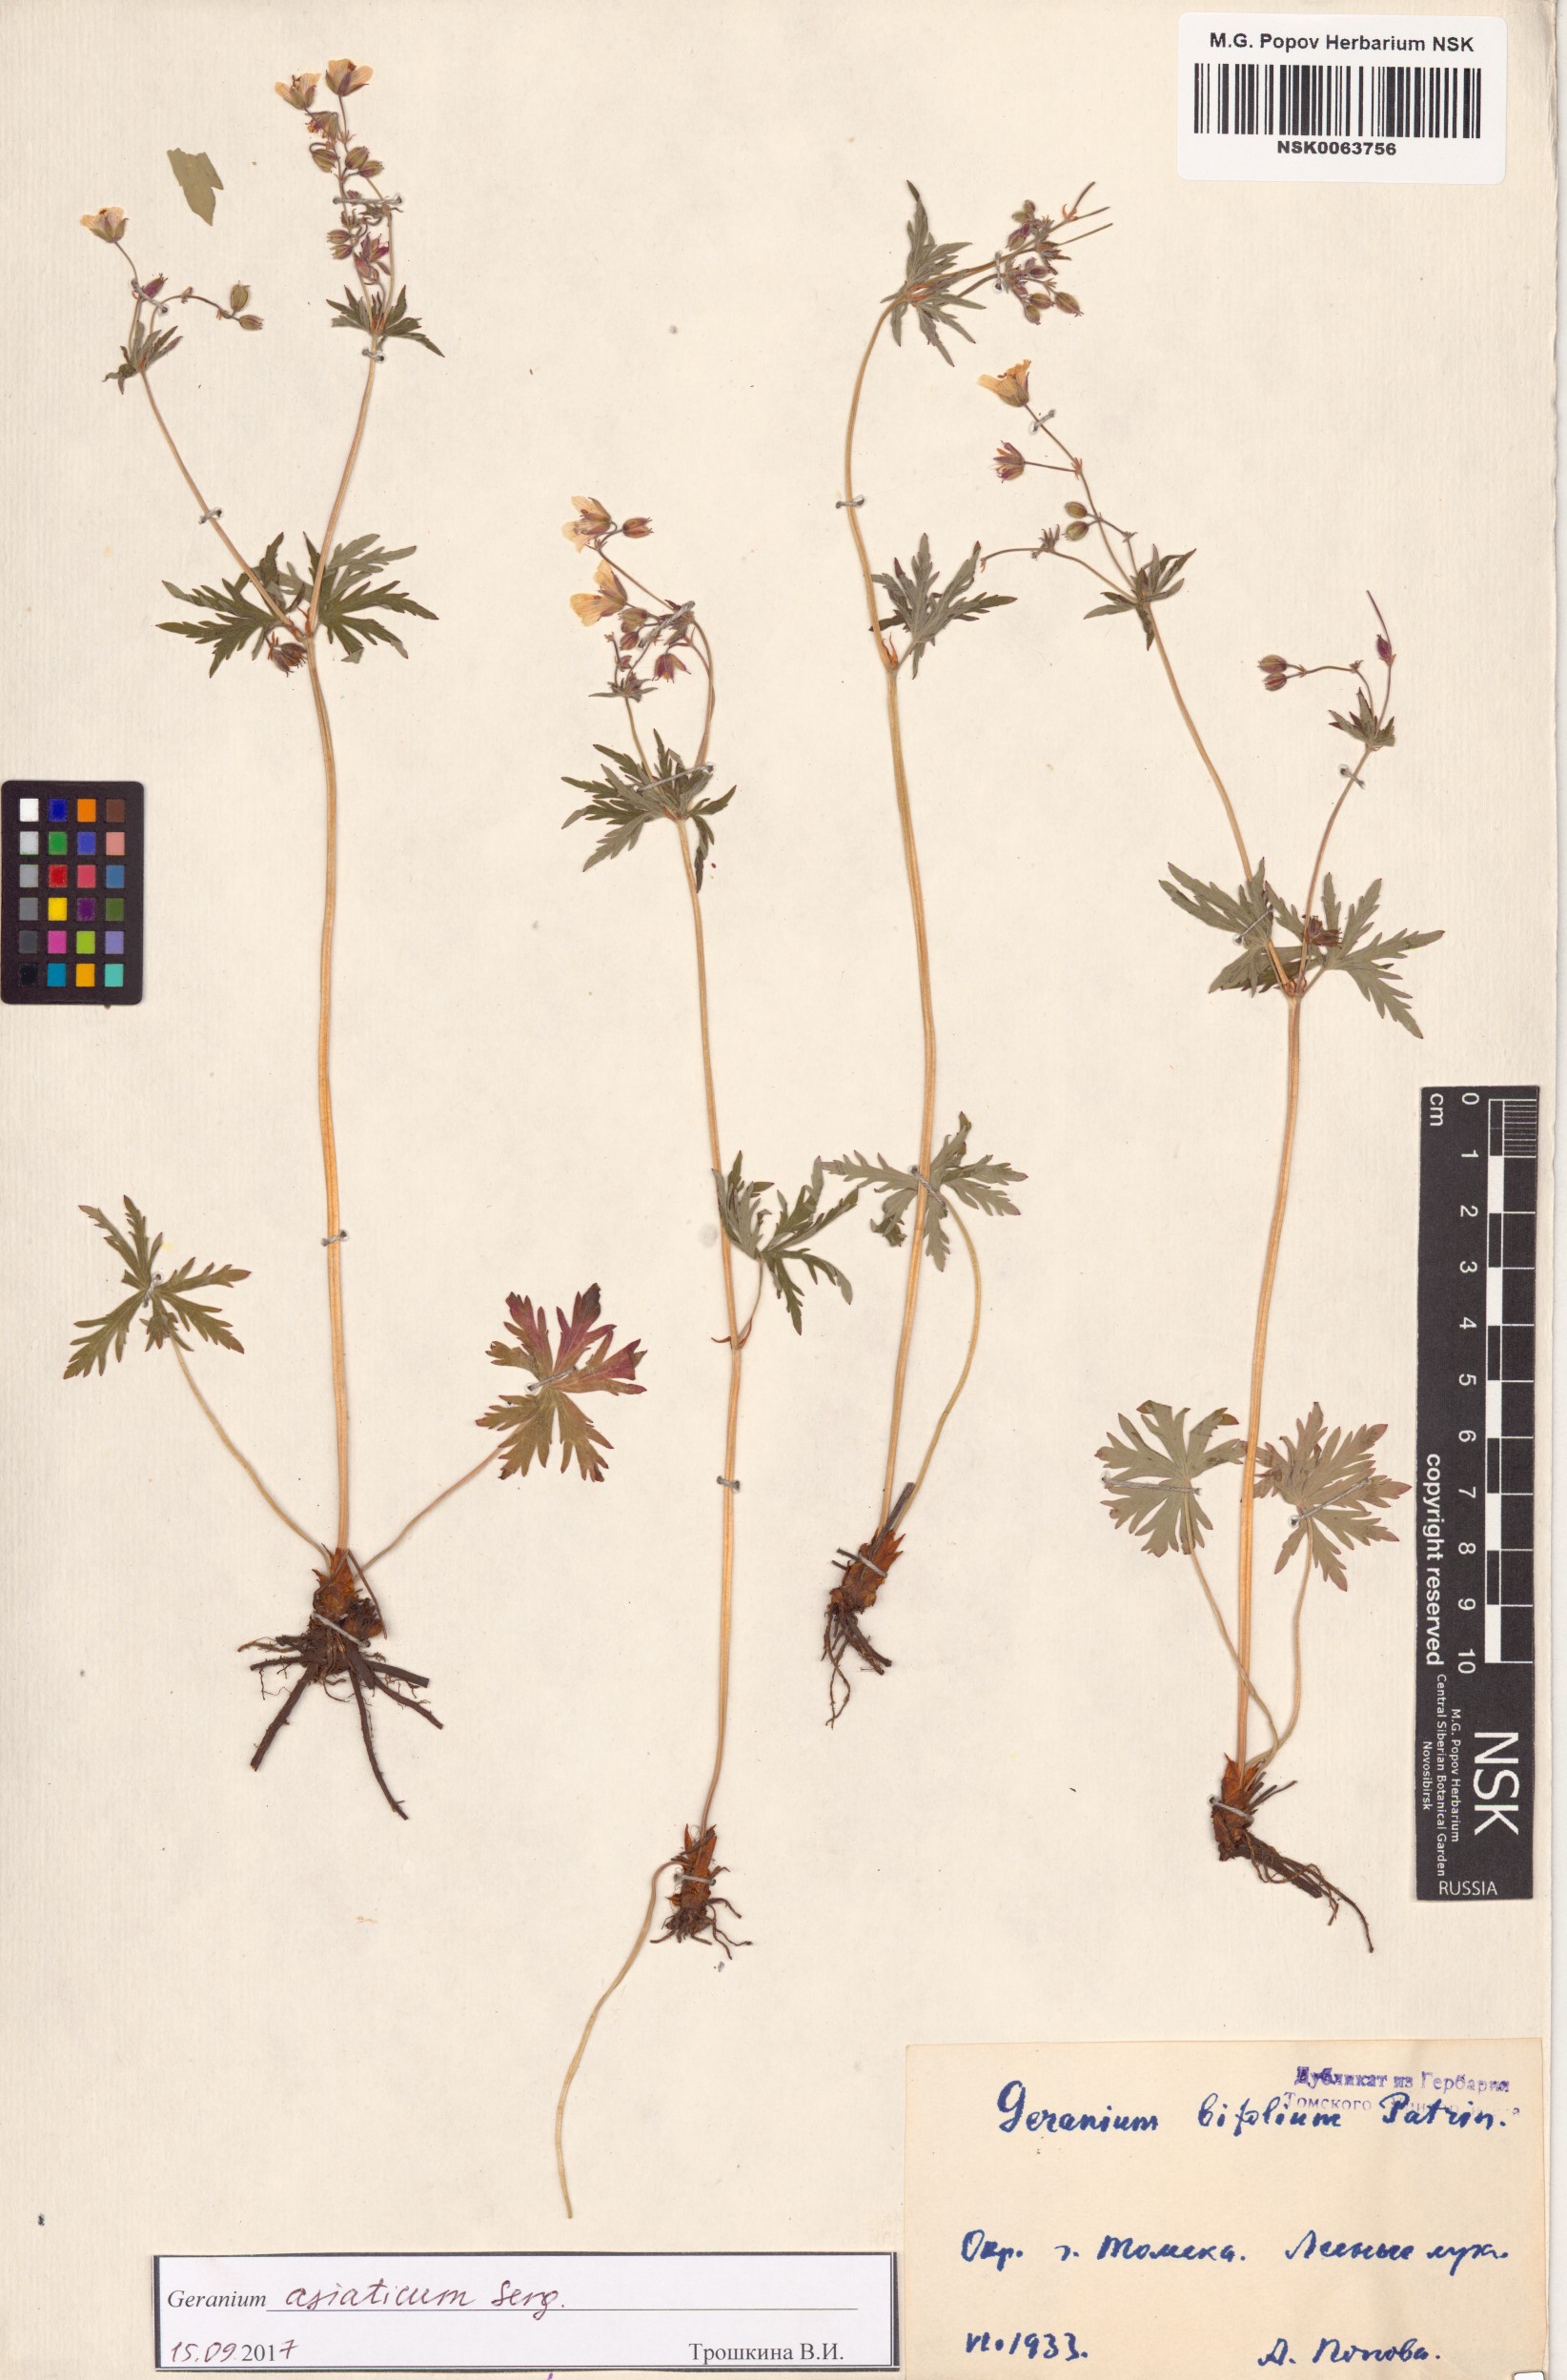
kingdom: Plantae
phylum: Tracheophyta
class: Magnoliopsida
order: Geraniales
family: Geraniaceae
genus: Geranium
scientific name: Geranium pseudosibiricum
